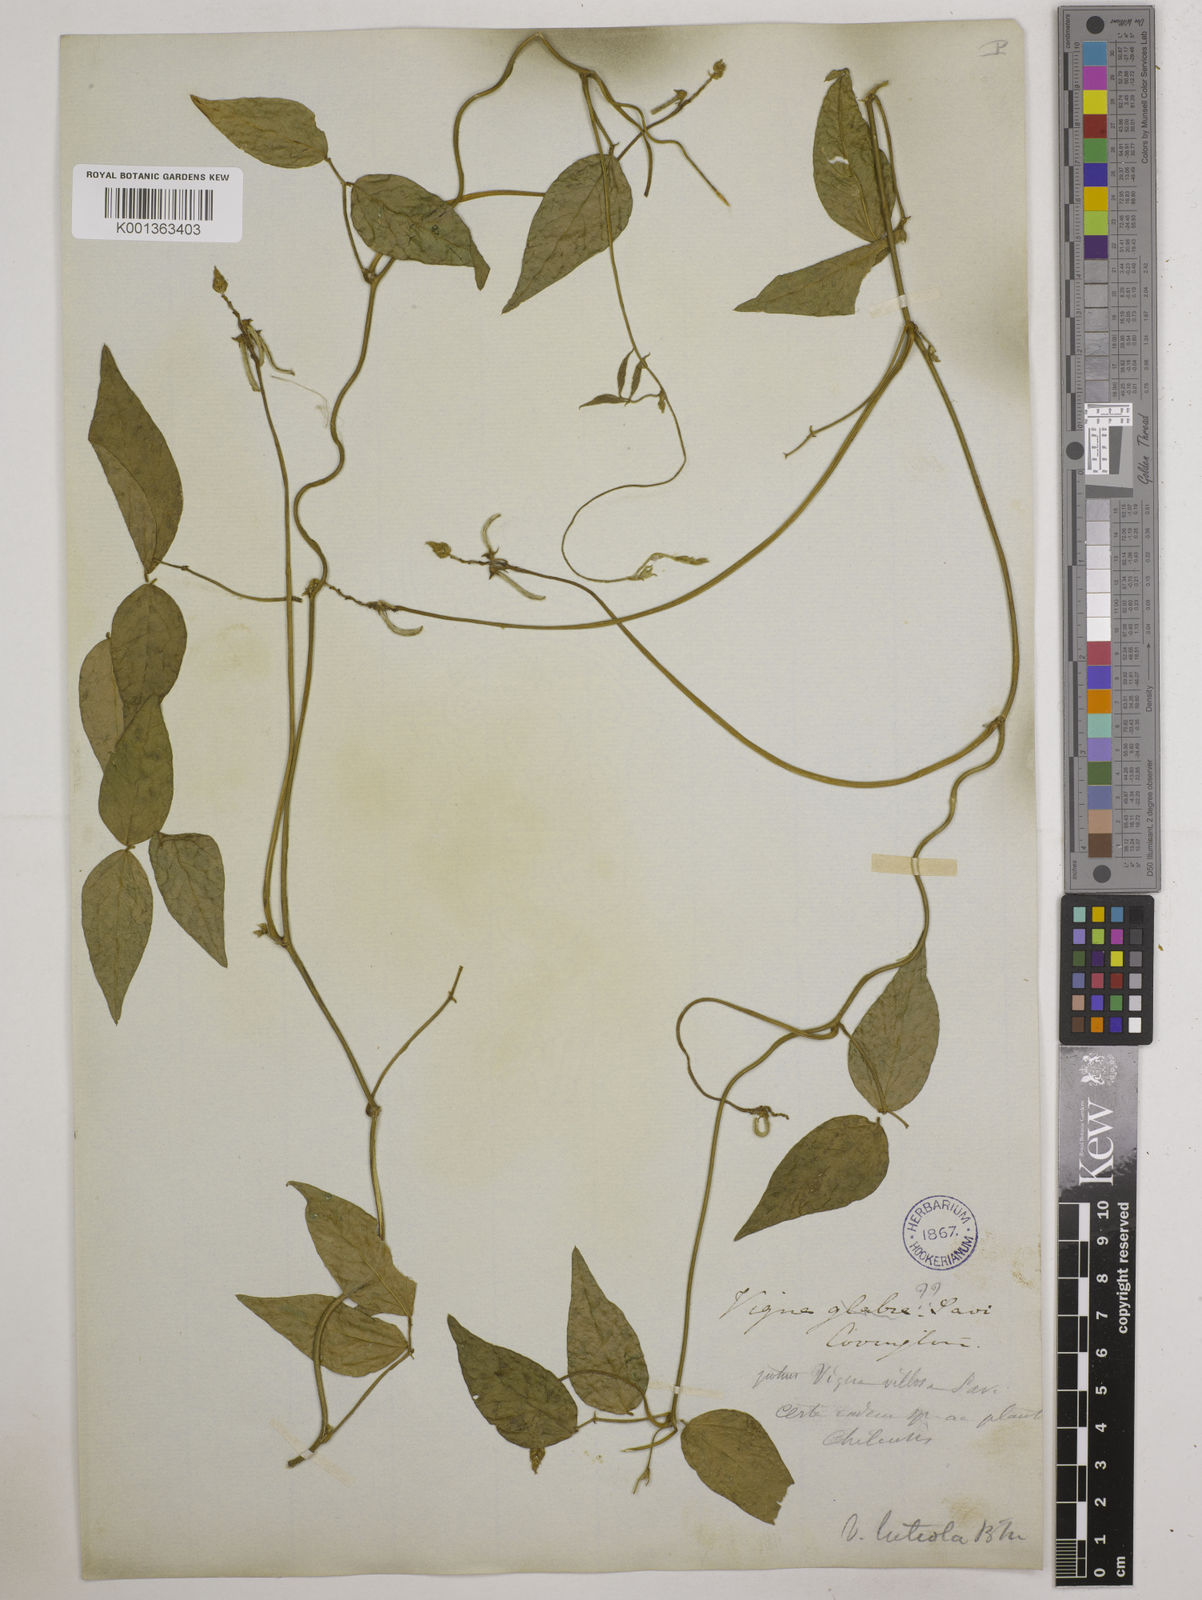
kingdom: Plantae
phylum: Tracheophyta
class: Magnoliopsida
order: Fabales
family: Fabaceae
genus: Vigna
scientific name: Vigna luteola
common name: Hairypod cowpea
